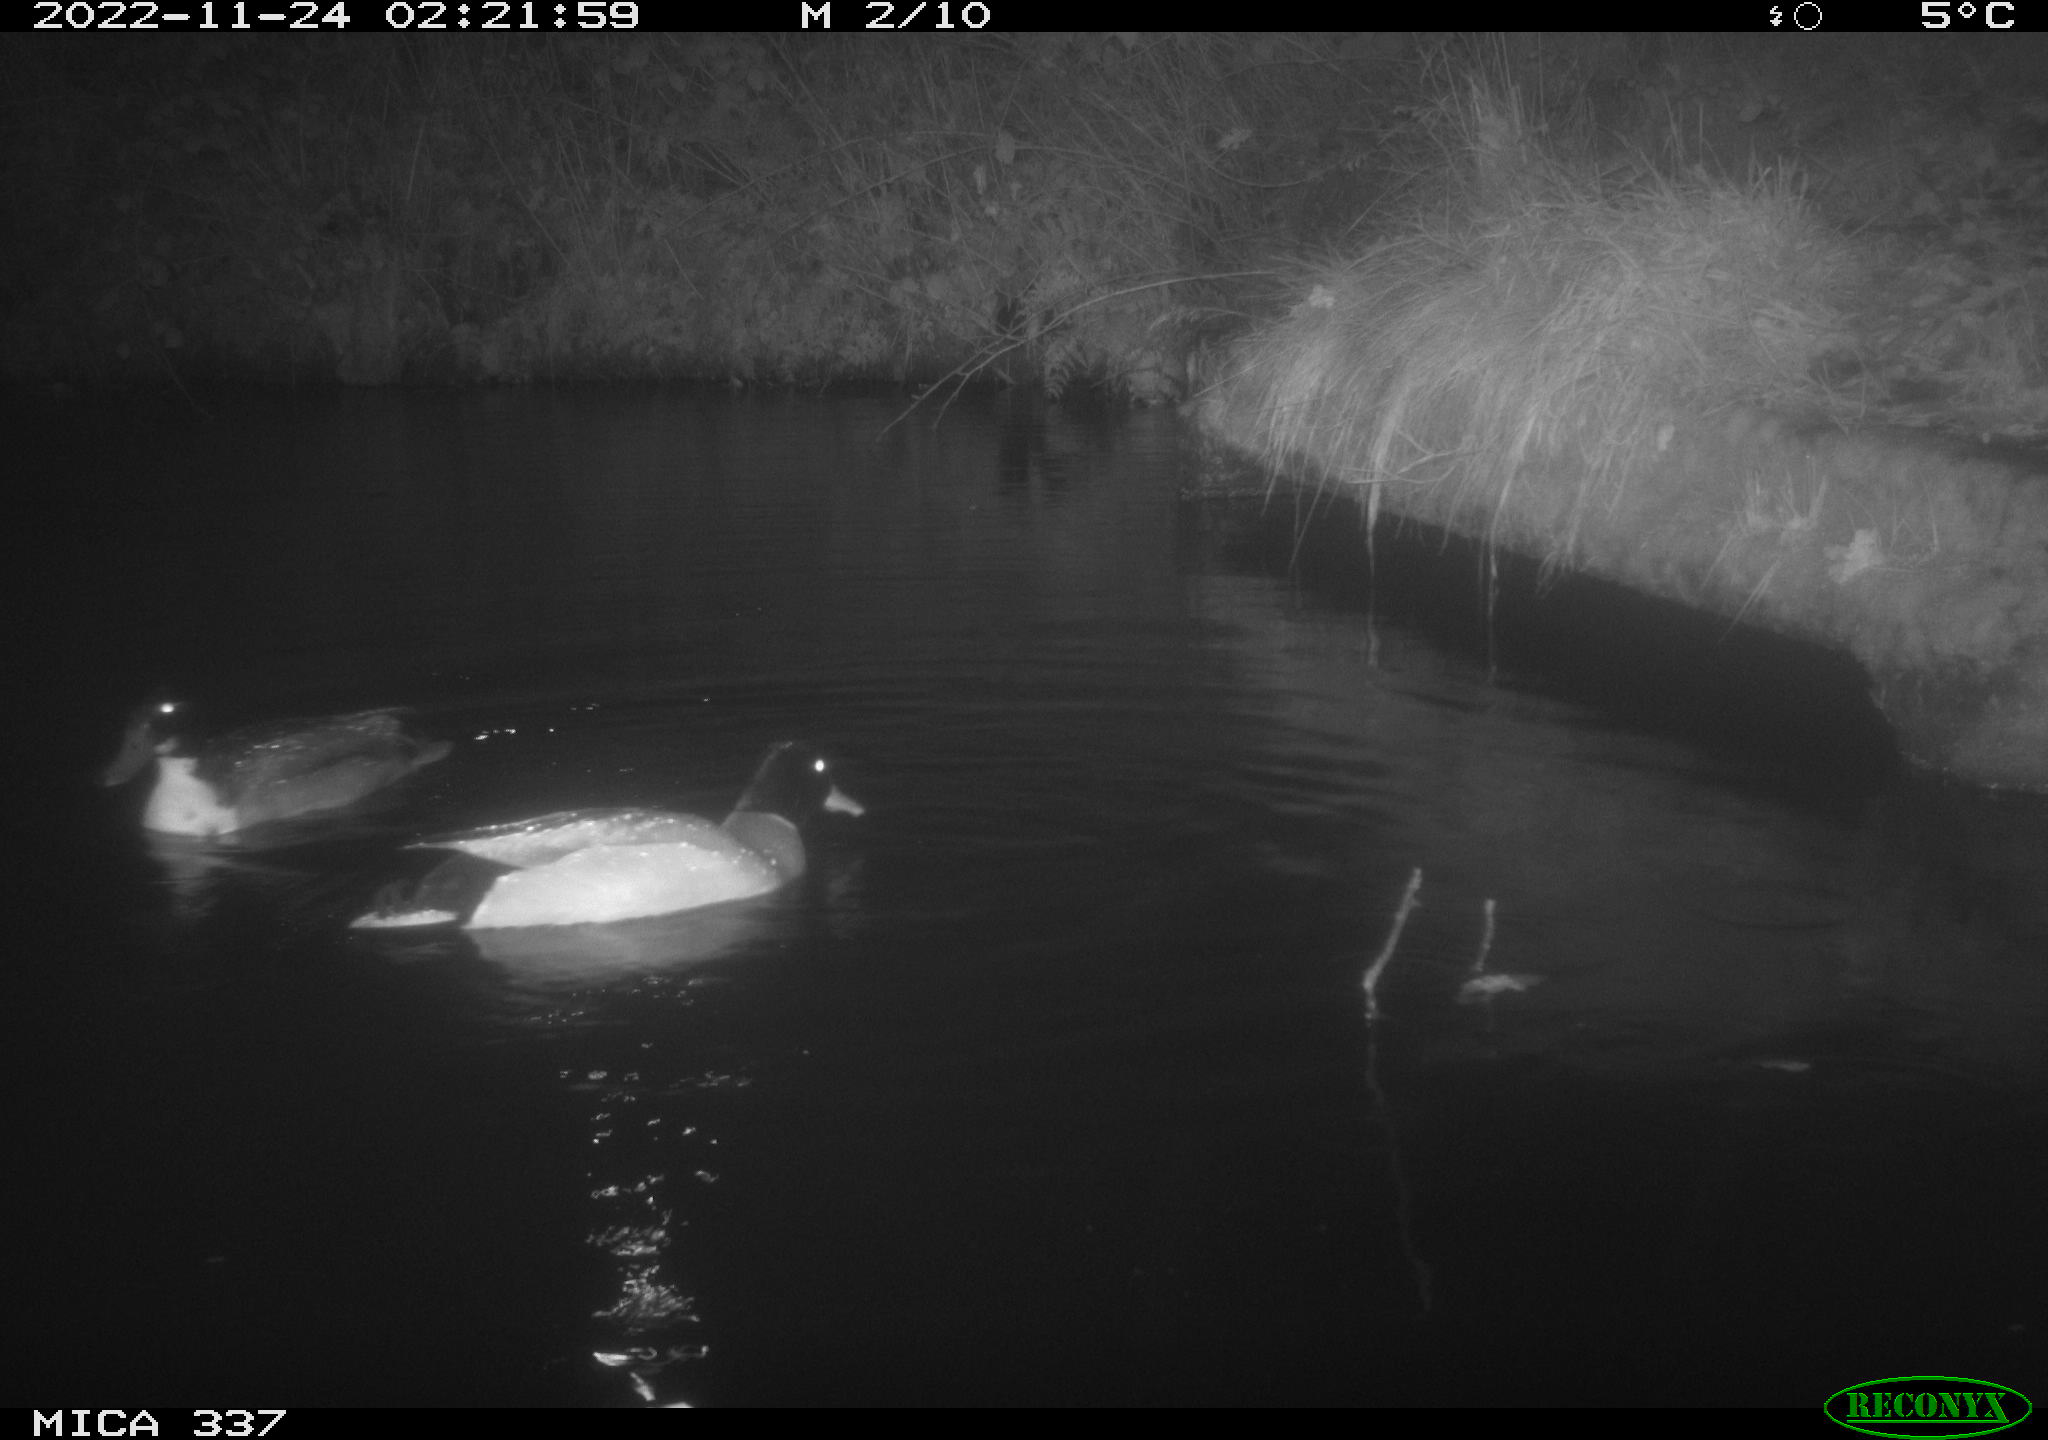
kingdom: Animalia
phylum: Chordata
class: Aves
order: Anseriformes
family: Anatidae
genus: Anas
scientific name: Anas
